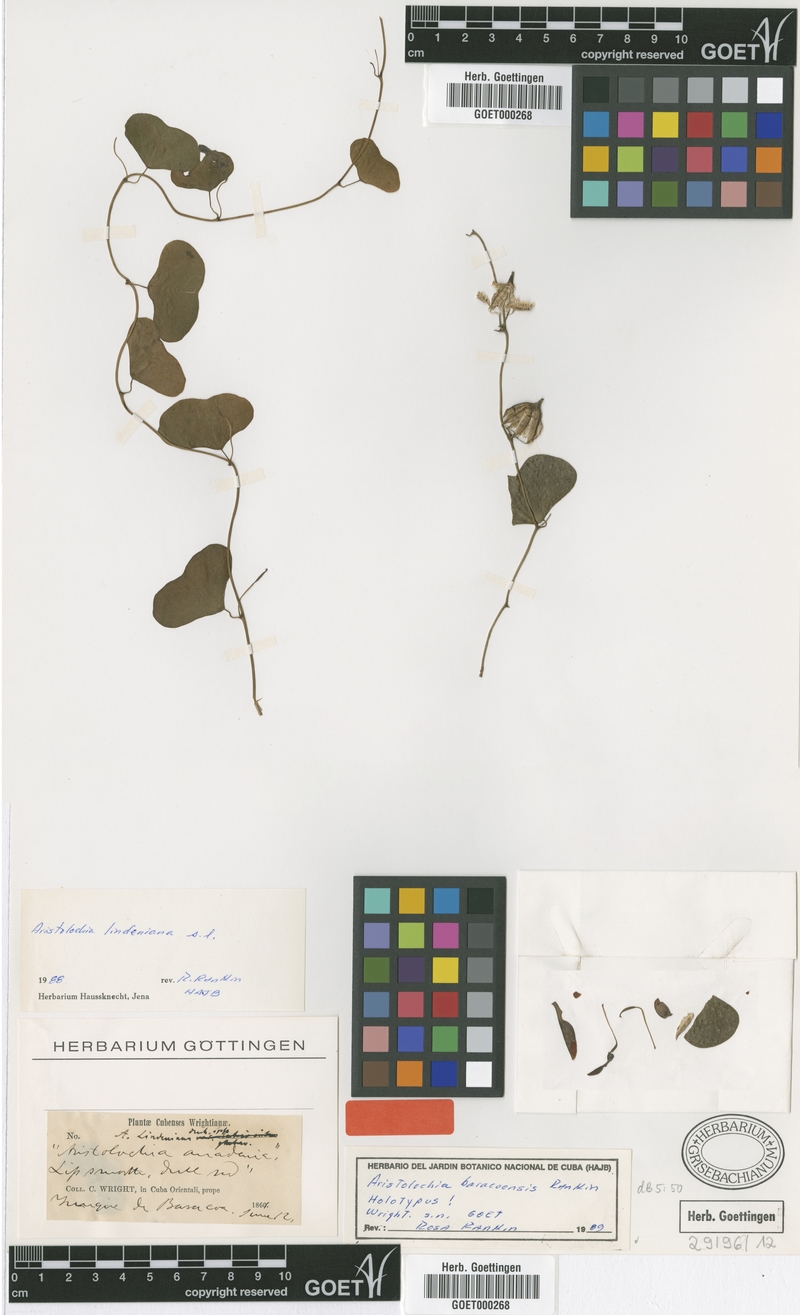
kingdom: Plantae
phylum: Tracheophyta
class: Magnoliopsida
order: Piperales
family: Aristolochiaceae
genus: Aristolochia
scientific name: Aristolochia baracoensis
